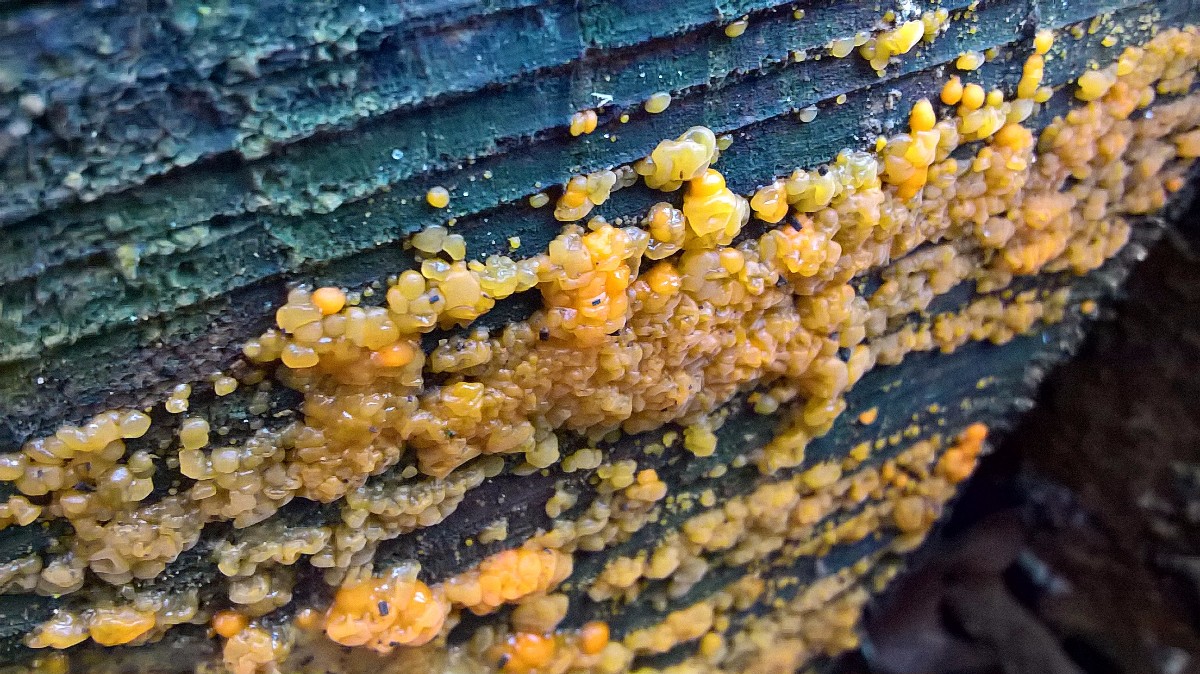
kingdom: Fungi
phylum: Basidiomycota
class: Dacrymycetes
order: Dacrymycetales
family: Dacrymycetaceae
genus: Dacrymyces
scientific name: Dacrymyces stillatus
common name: almindelig tåresvamp
